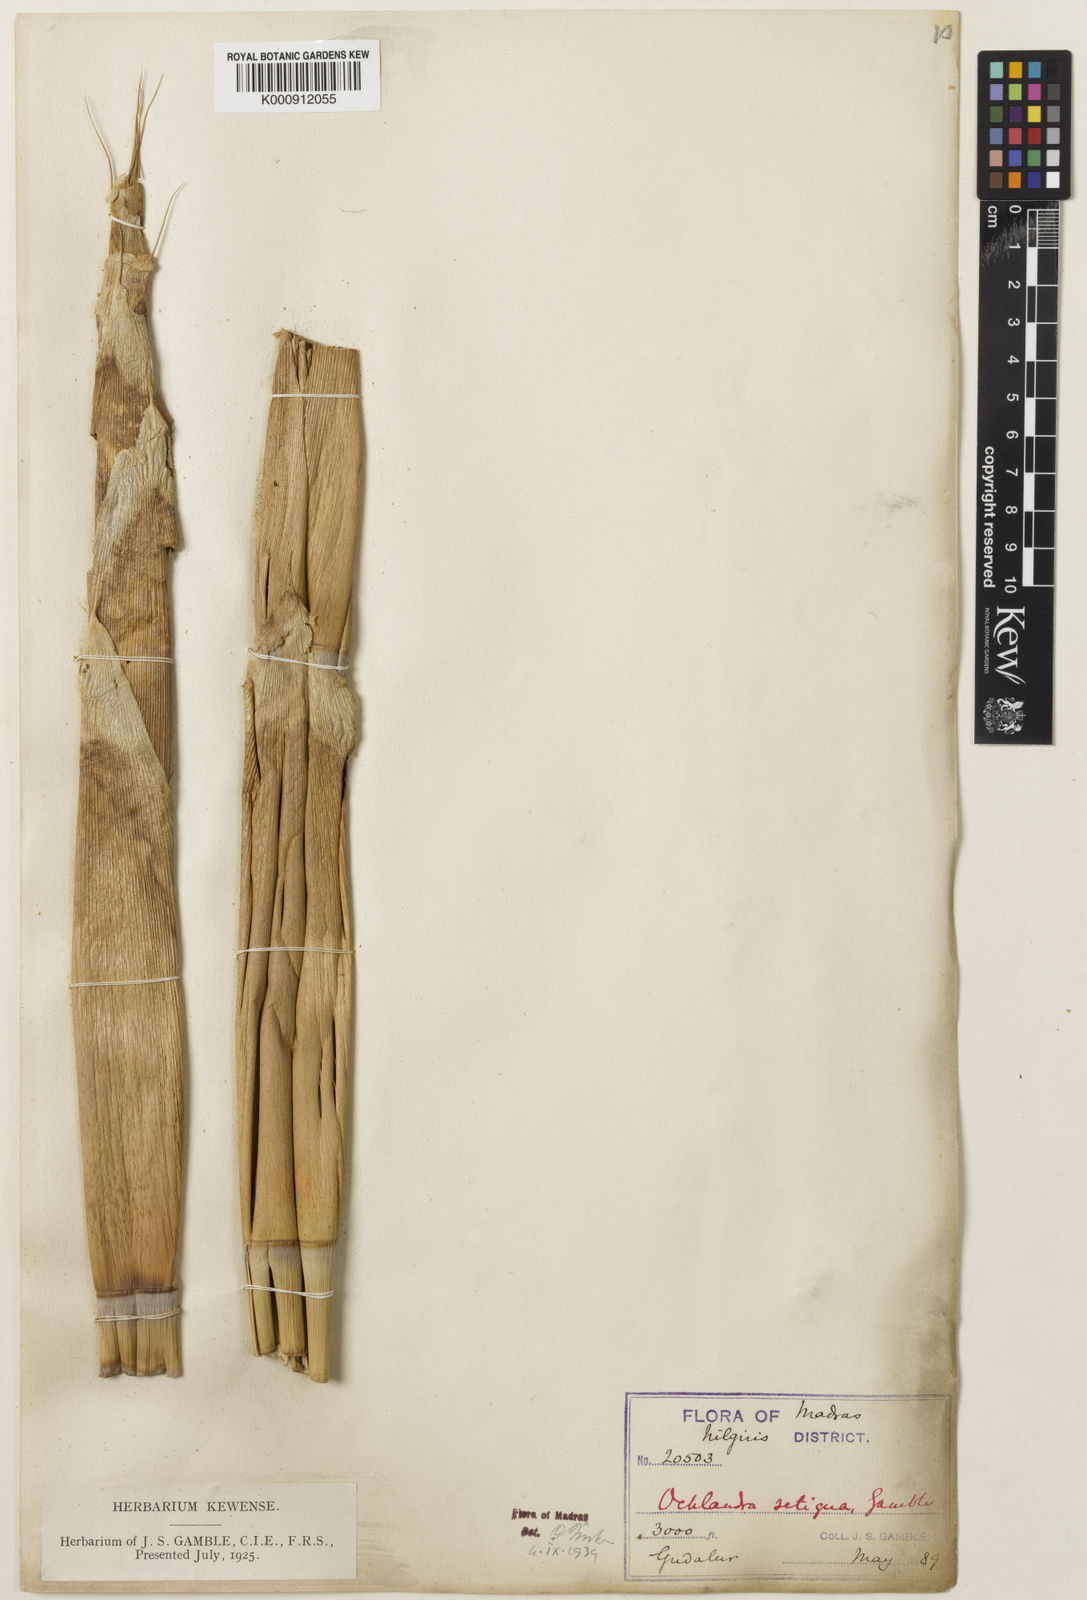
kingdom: Plantae
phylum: Tracheophyta
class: Liliopsida
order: Poales
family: Poaceae
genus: Ochlandra
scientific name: Ochlandra setigera
